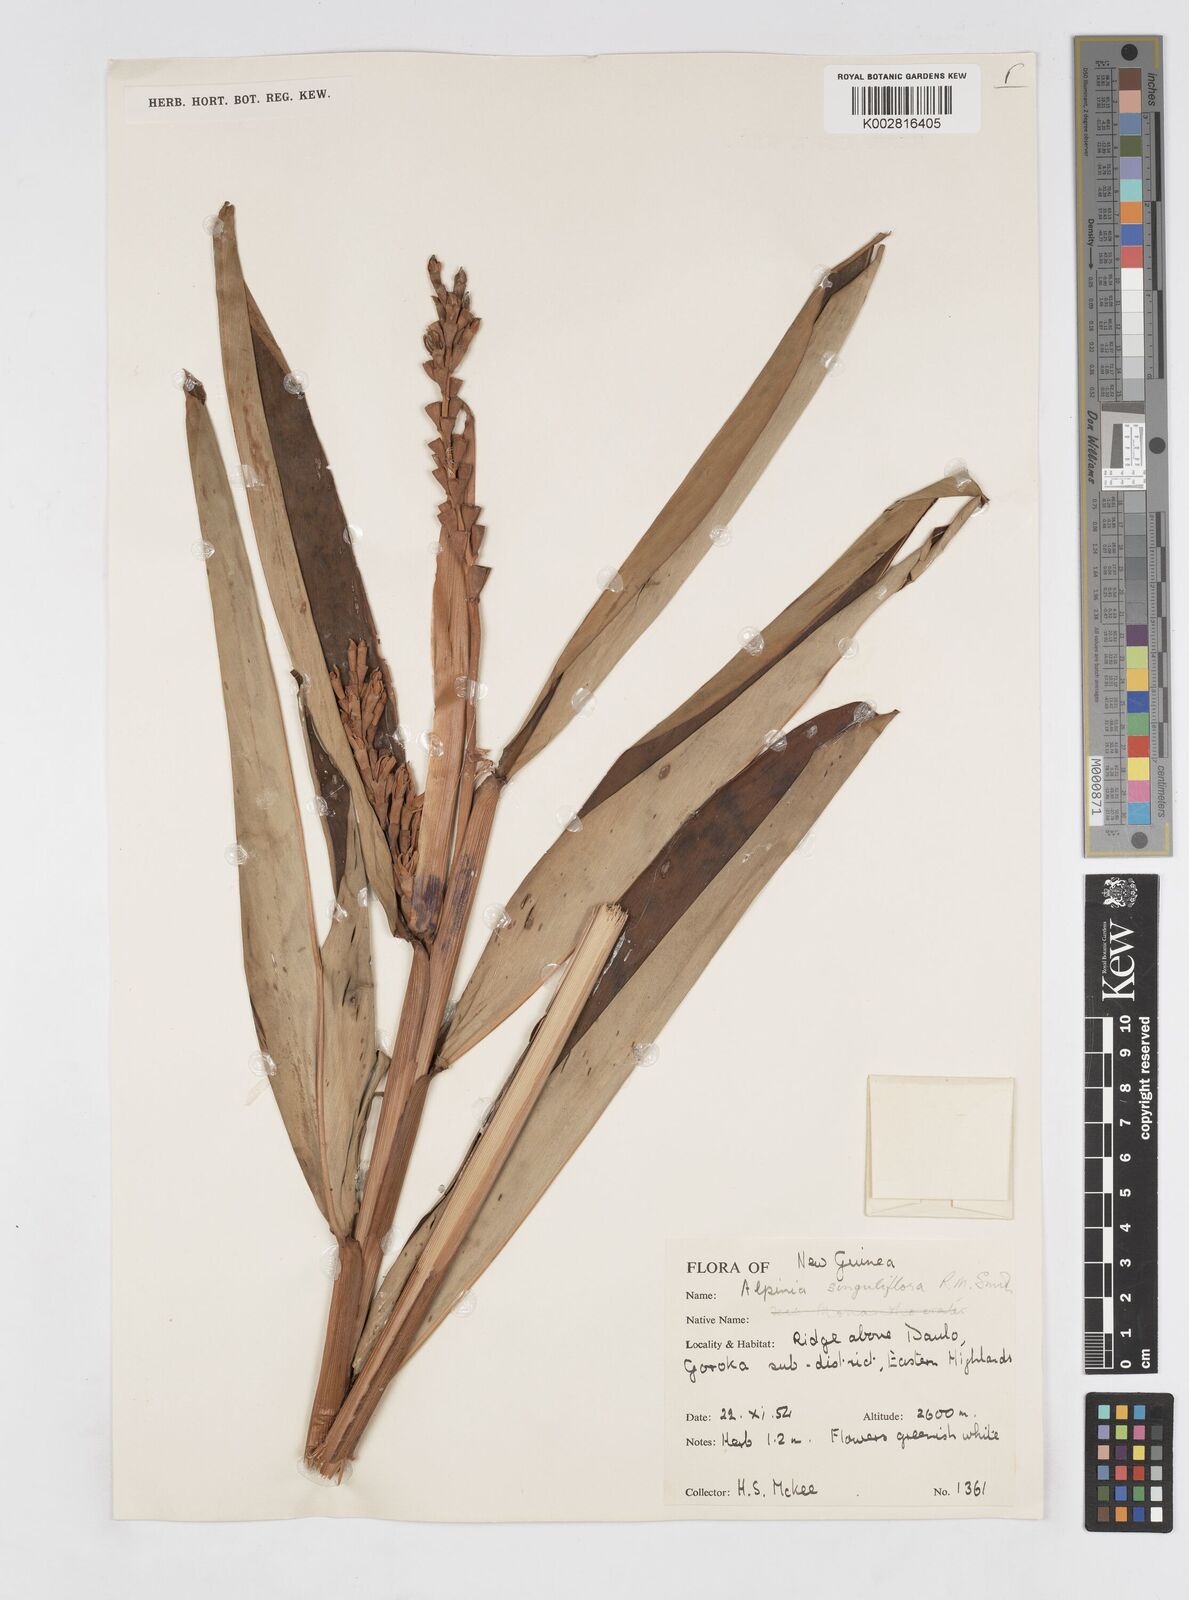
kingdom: Plantae
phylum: Tracheophyta
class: Liliopsida
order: Zingiberales
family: Zingiberaceae
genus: Alpinia
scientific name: Alpinia singuliflora
